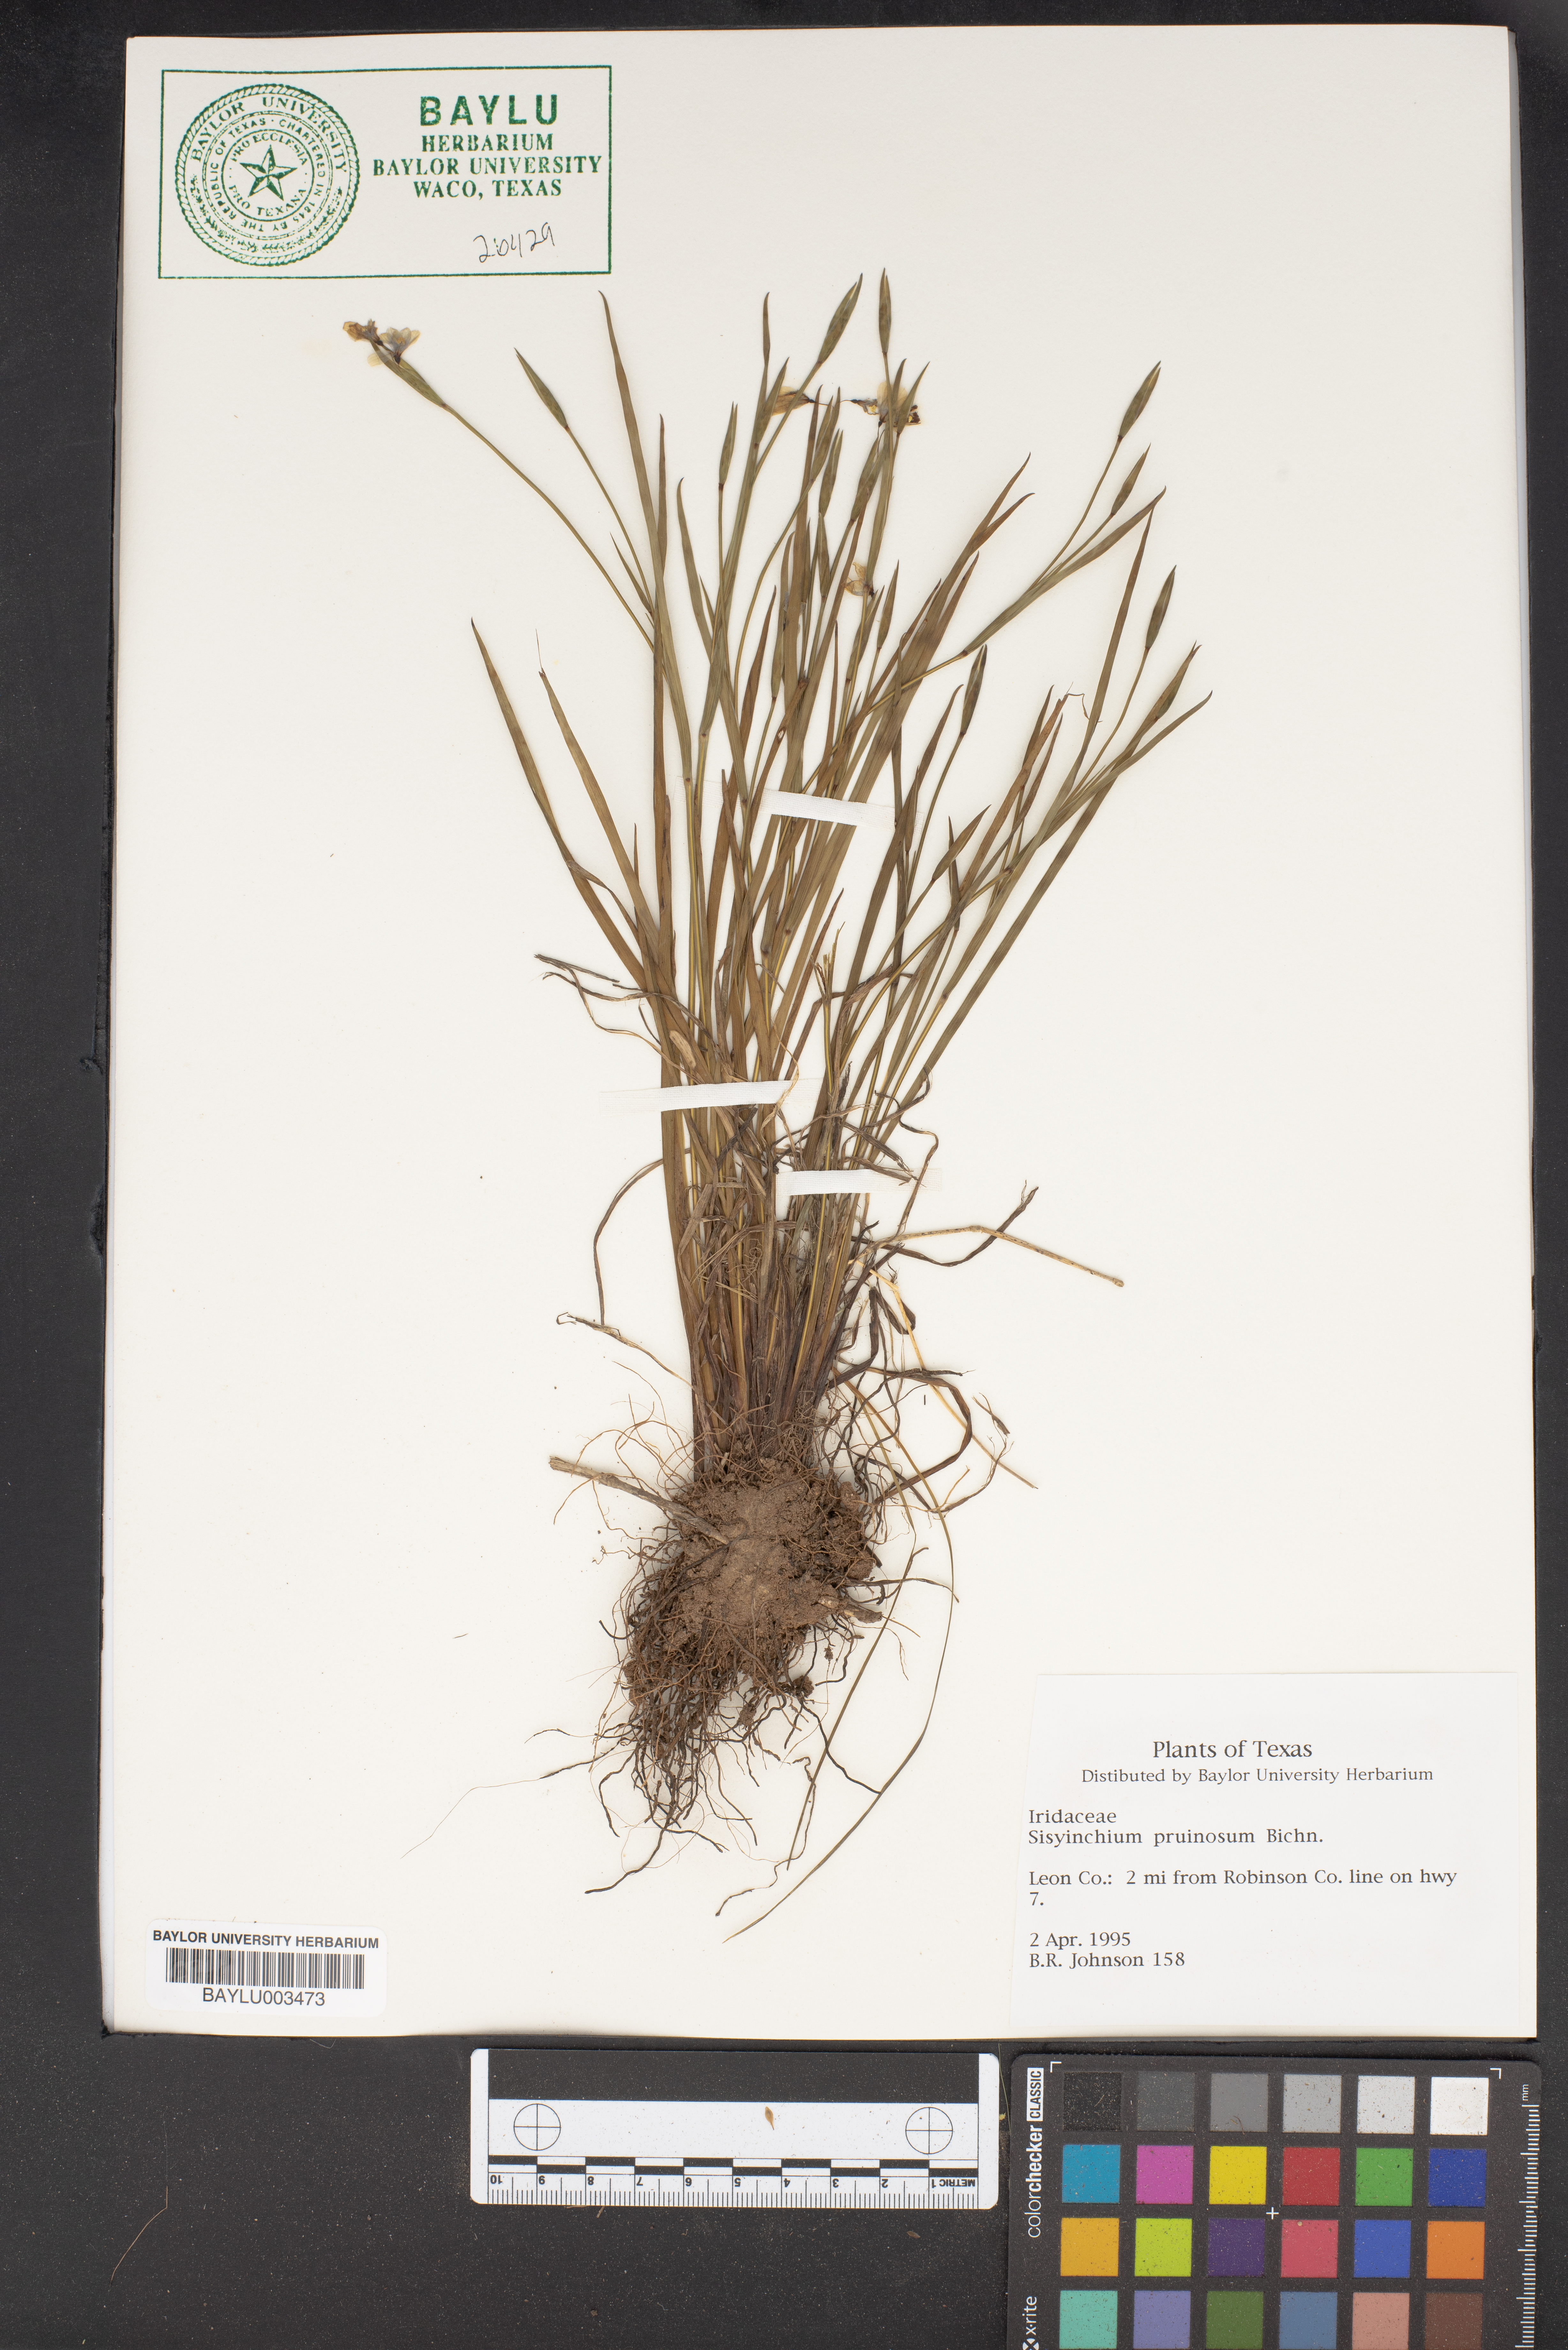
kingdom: Plantae
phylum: Tracheophyta
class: Liliopsida
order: Asparagales
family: Iridaceae
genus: Sisyrinchium
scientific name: Sisyrinchium pruinosum
